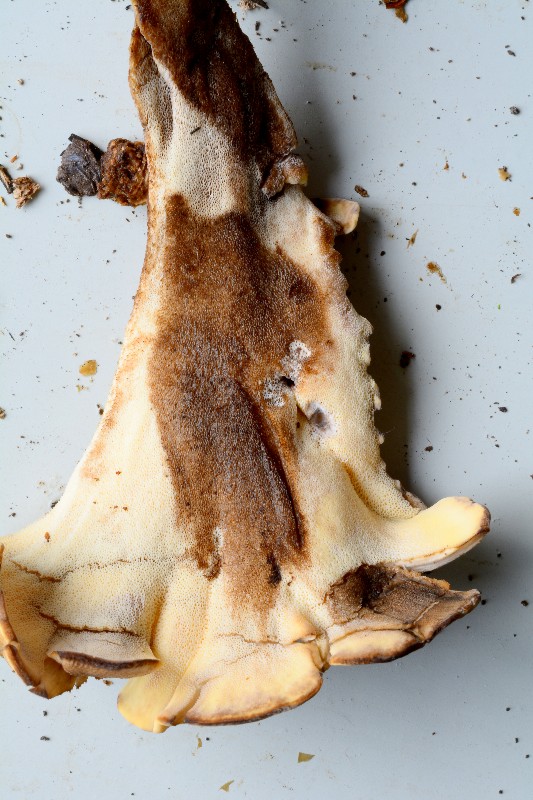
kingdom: Fungi
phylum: Basidiomycota
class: Agaricomycetes
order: Polyporales
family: Meripilaceae
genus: Meripilus
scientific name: Meripilus giganteus
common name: kæmpeporesvamp
